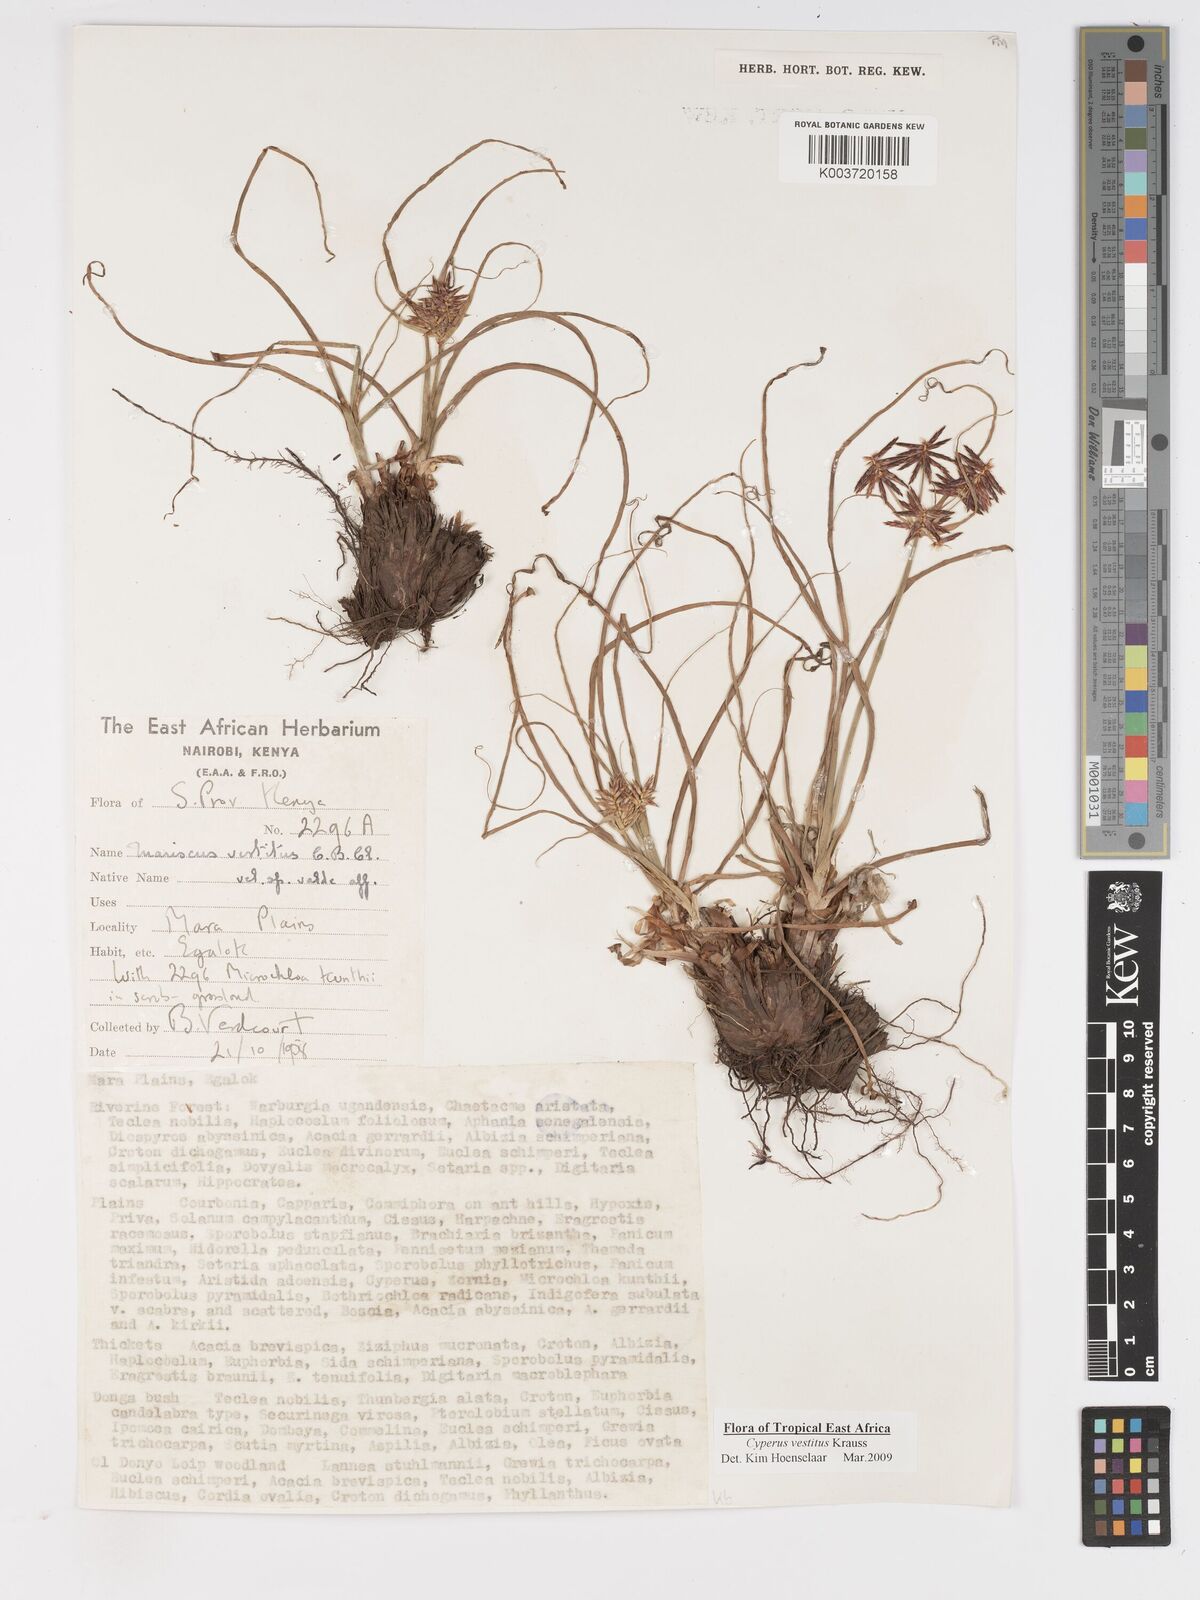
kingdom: Plantae
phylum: Tracheophyta
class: Liliopsida
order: Poales
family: Cyperaceae
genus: Cyperus
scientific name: Cyperus vestitus
